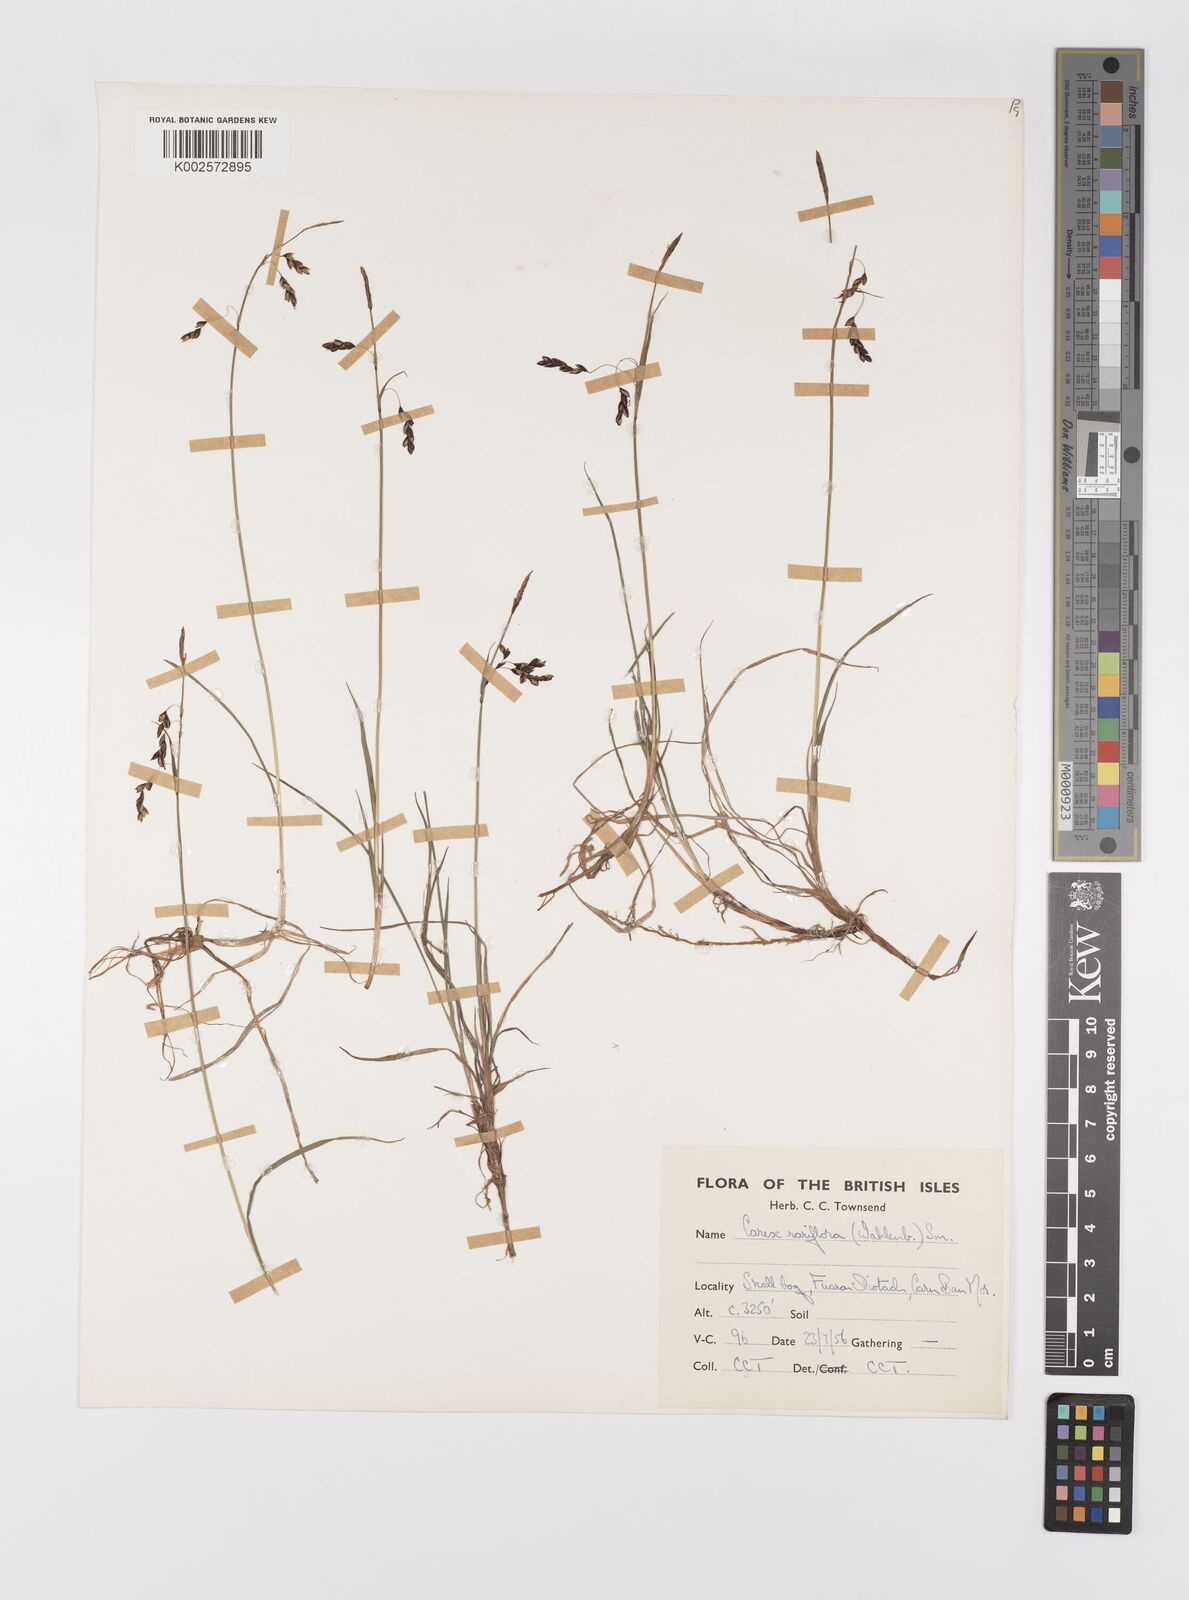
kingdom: Plantae
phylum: Tracheophyta
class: Liliopsida
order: Poales
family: Cyperaceae
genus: Carex
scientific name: Carex rariflora
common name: Loose-flowered alpine sedge
